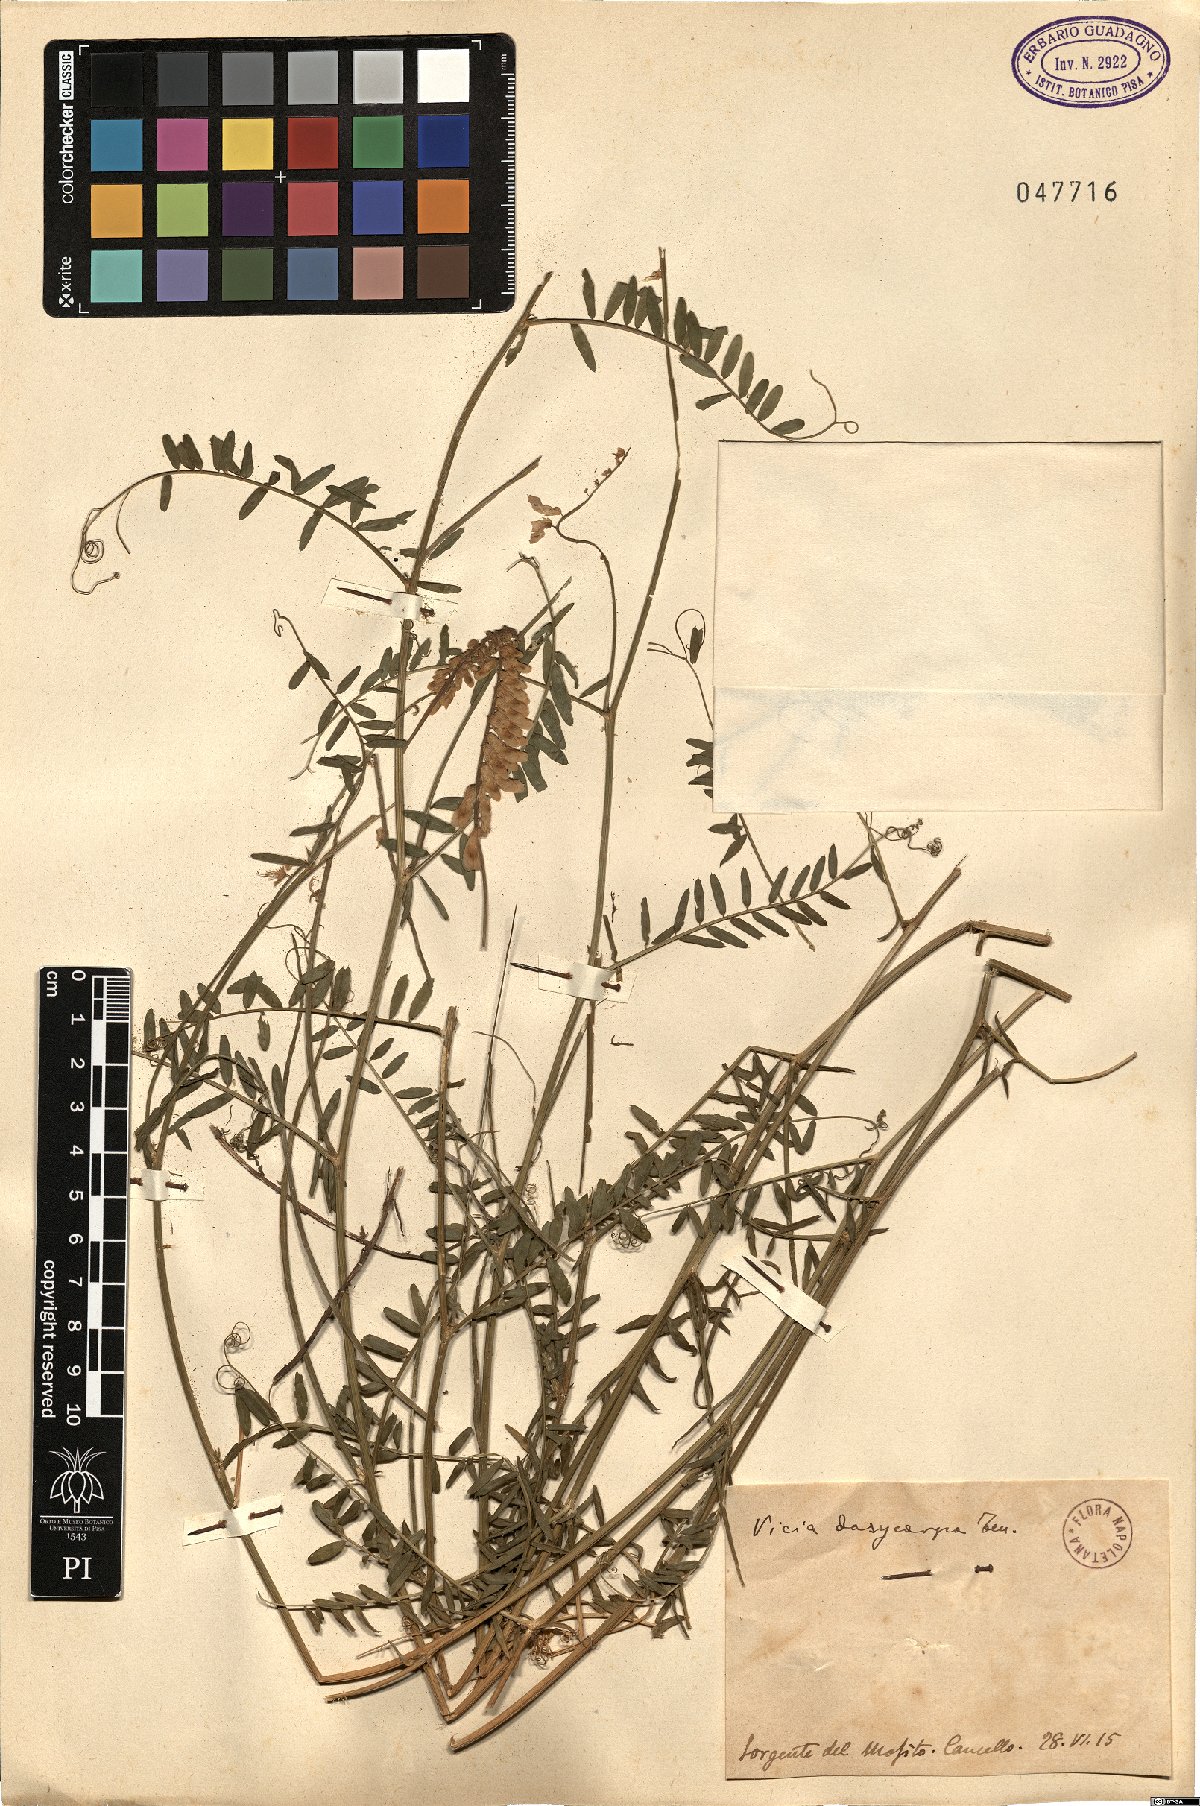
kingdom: Plantae
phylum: Tracheophyta
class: Magnoliopsida
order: Fabales
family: Fabaceae
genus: Vicia
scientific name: Vicia villosa
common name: Fodder vetch
